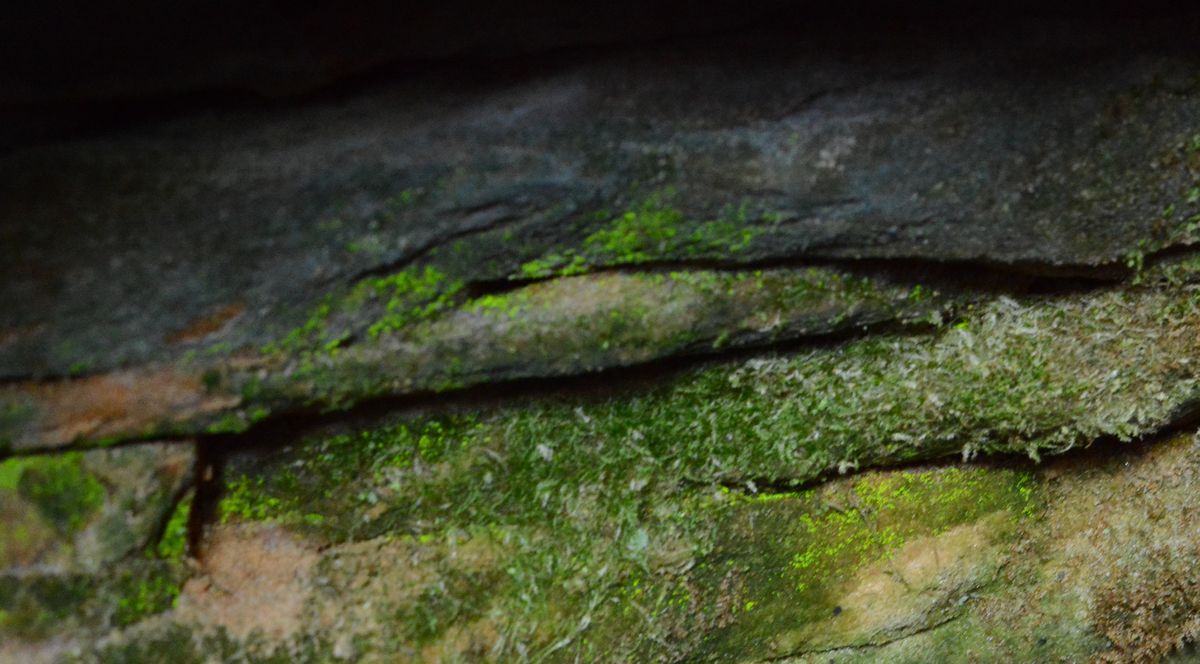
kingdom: Plantae
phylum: Bryophyta
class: Bryopsida
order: Dicranales
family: Schistostegaceae
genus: Schistostega
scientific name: Schistostega pennata
